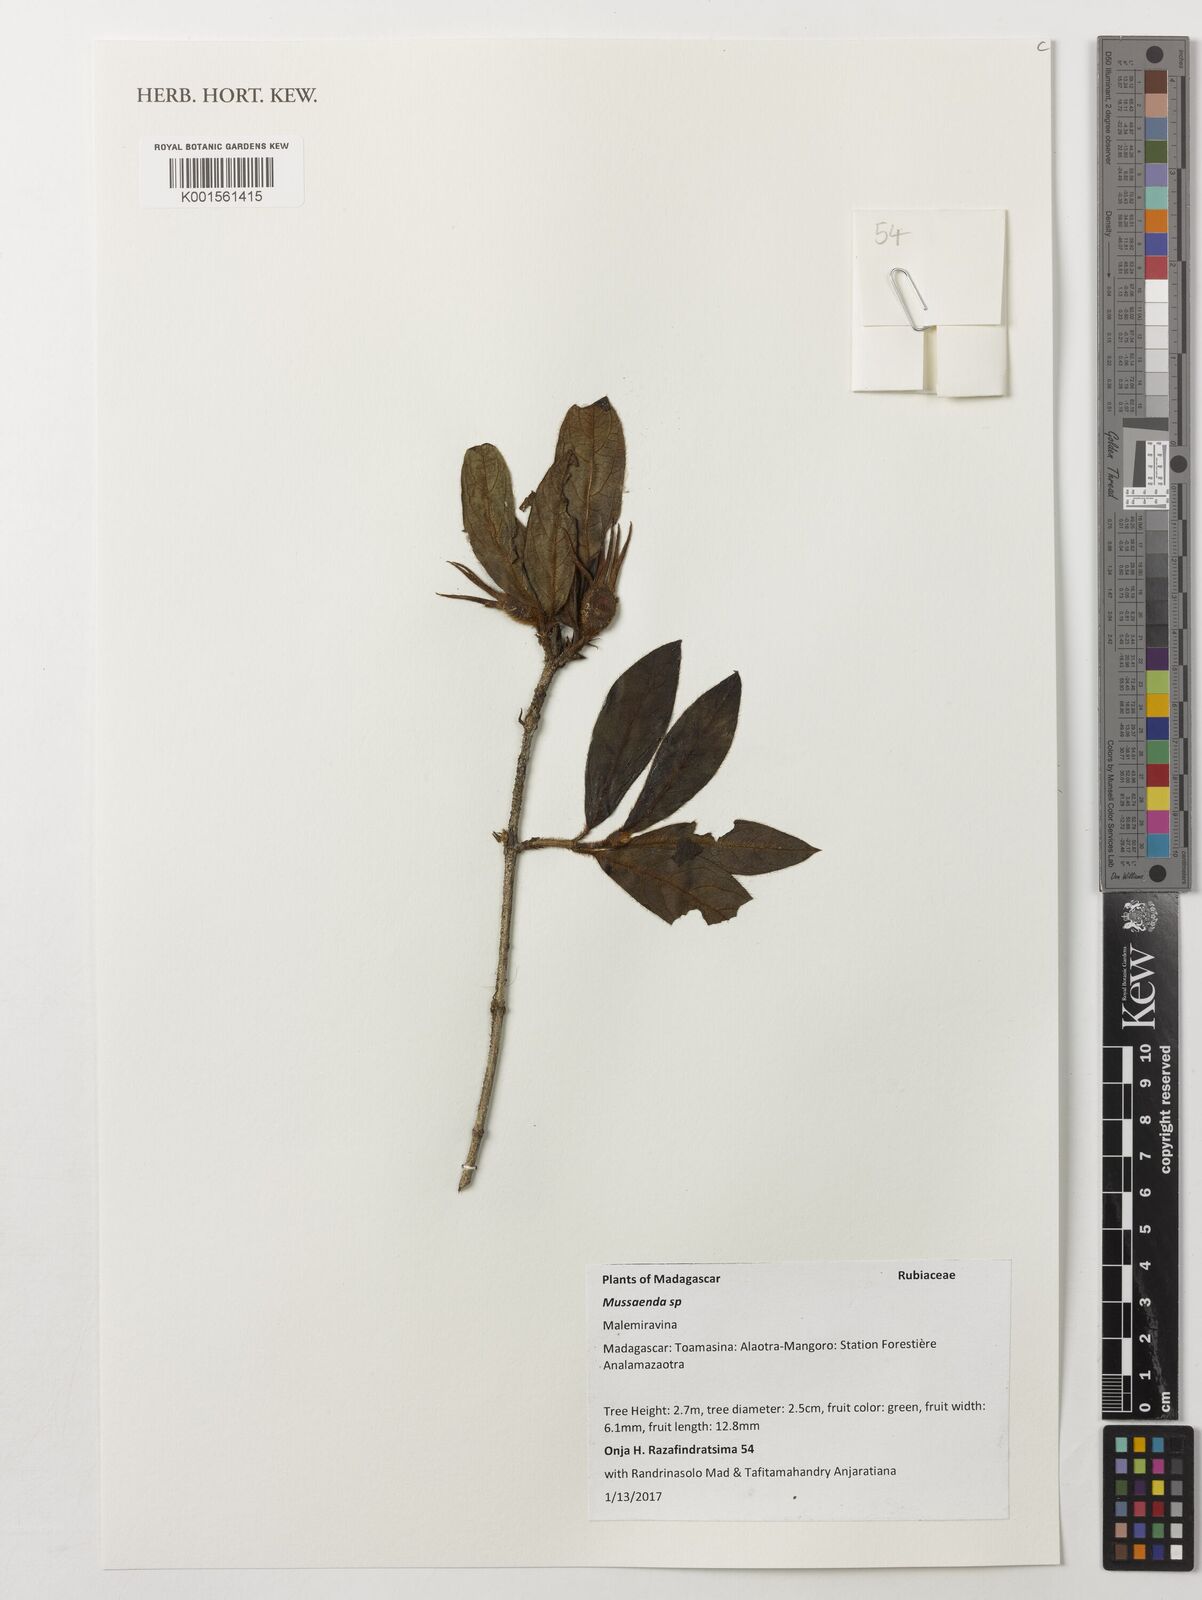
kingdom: Plantae
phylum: Tracheophyta
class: Magnoliopsida
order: Gentianales
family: Rubiaceae
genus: Mussaenda
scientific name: Mussaenda
